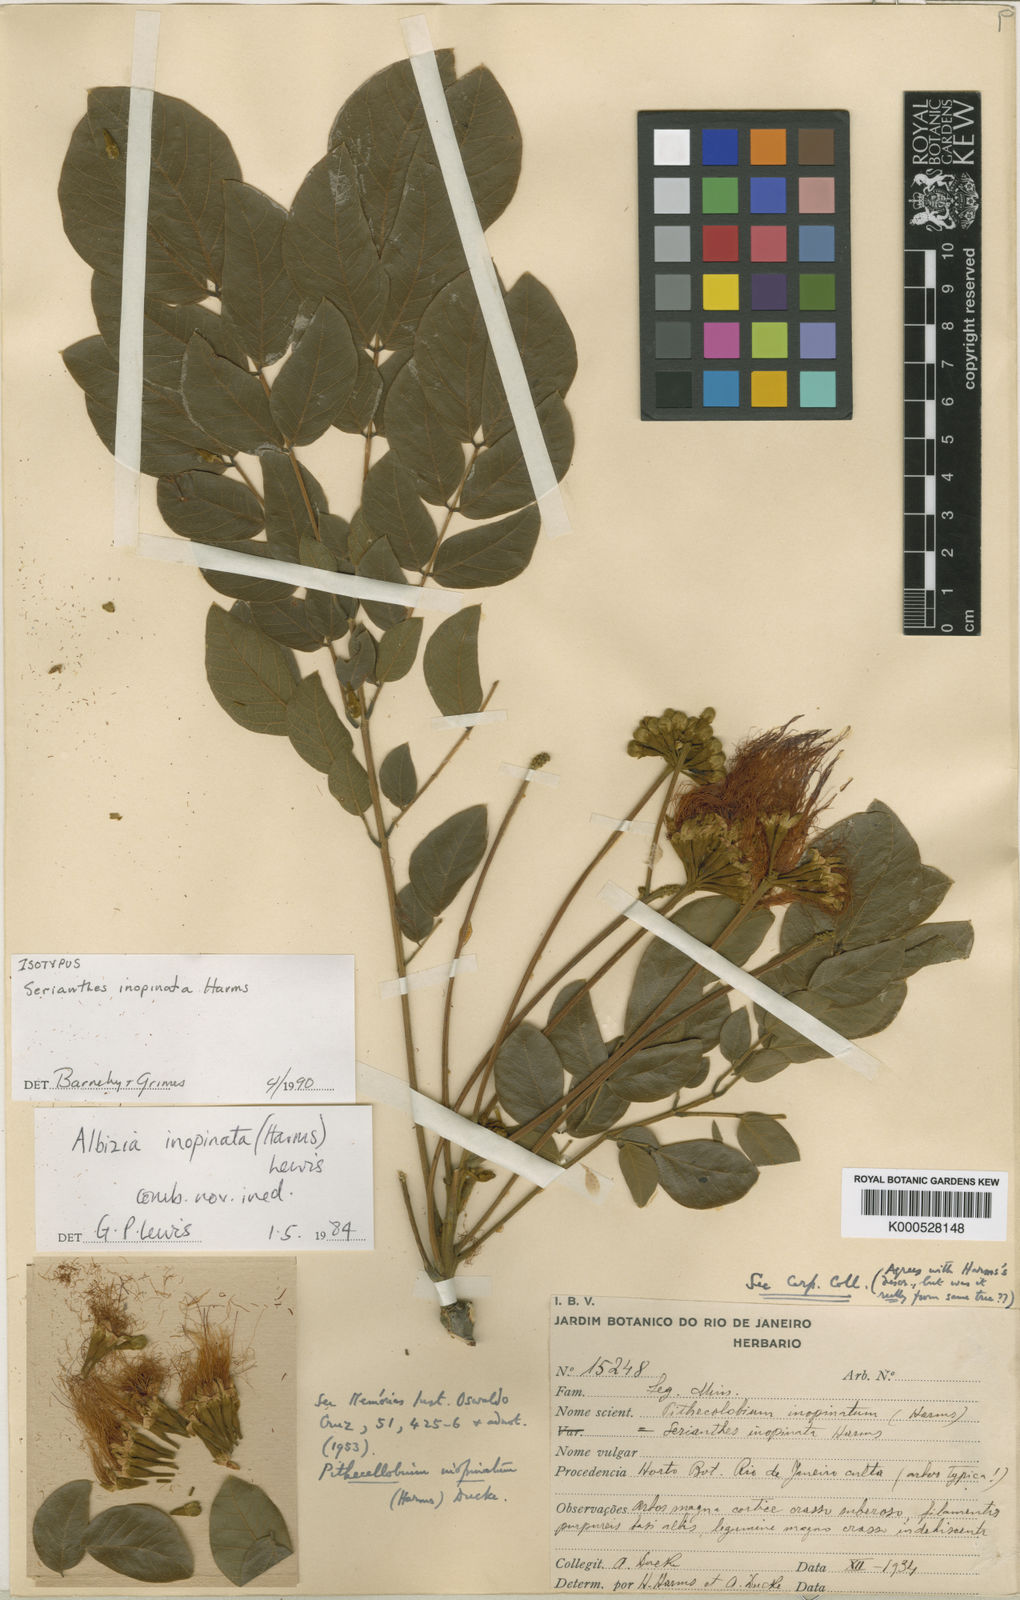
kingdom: Plantae
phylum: Tracheophyta
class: Magnoliopsida
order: Fabales
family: Fabaceae
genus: Samanea
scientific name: Samanea inopinata
